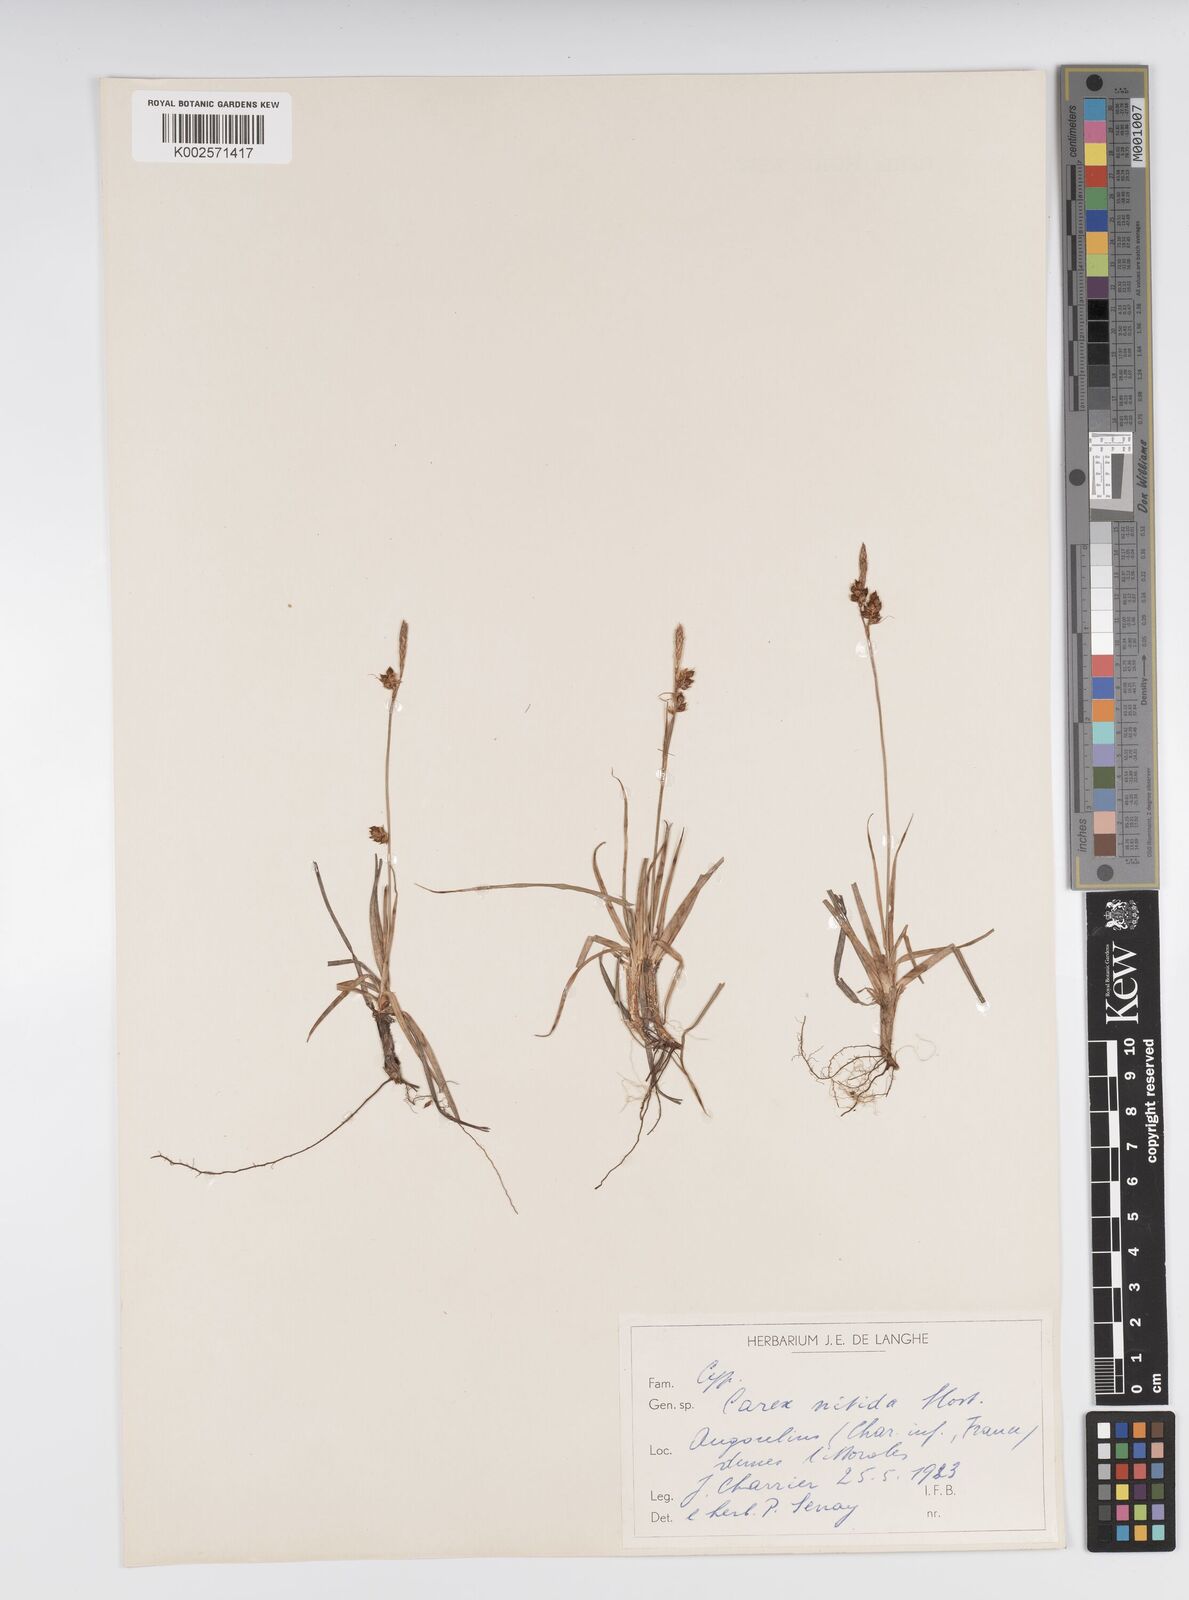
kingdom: Plantae
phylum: Tracheophyta
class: Liliopsida
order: Poales
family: Cyperaceae
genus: Carex
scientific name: Carex liparocarpos
